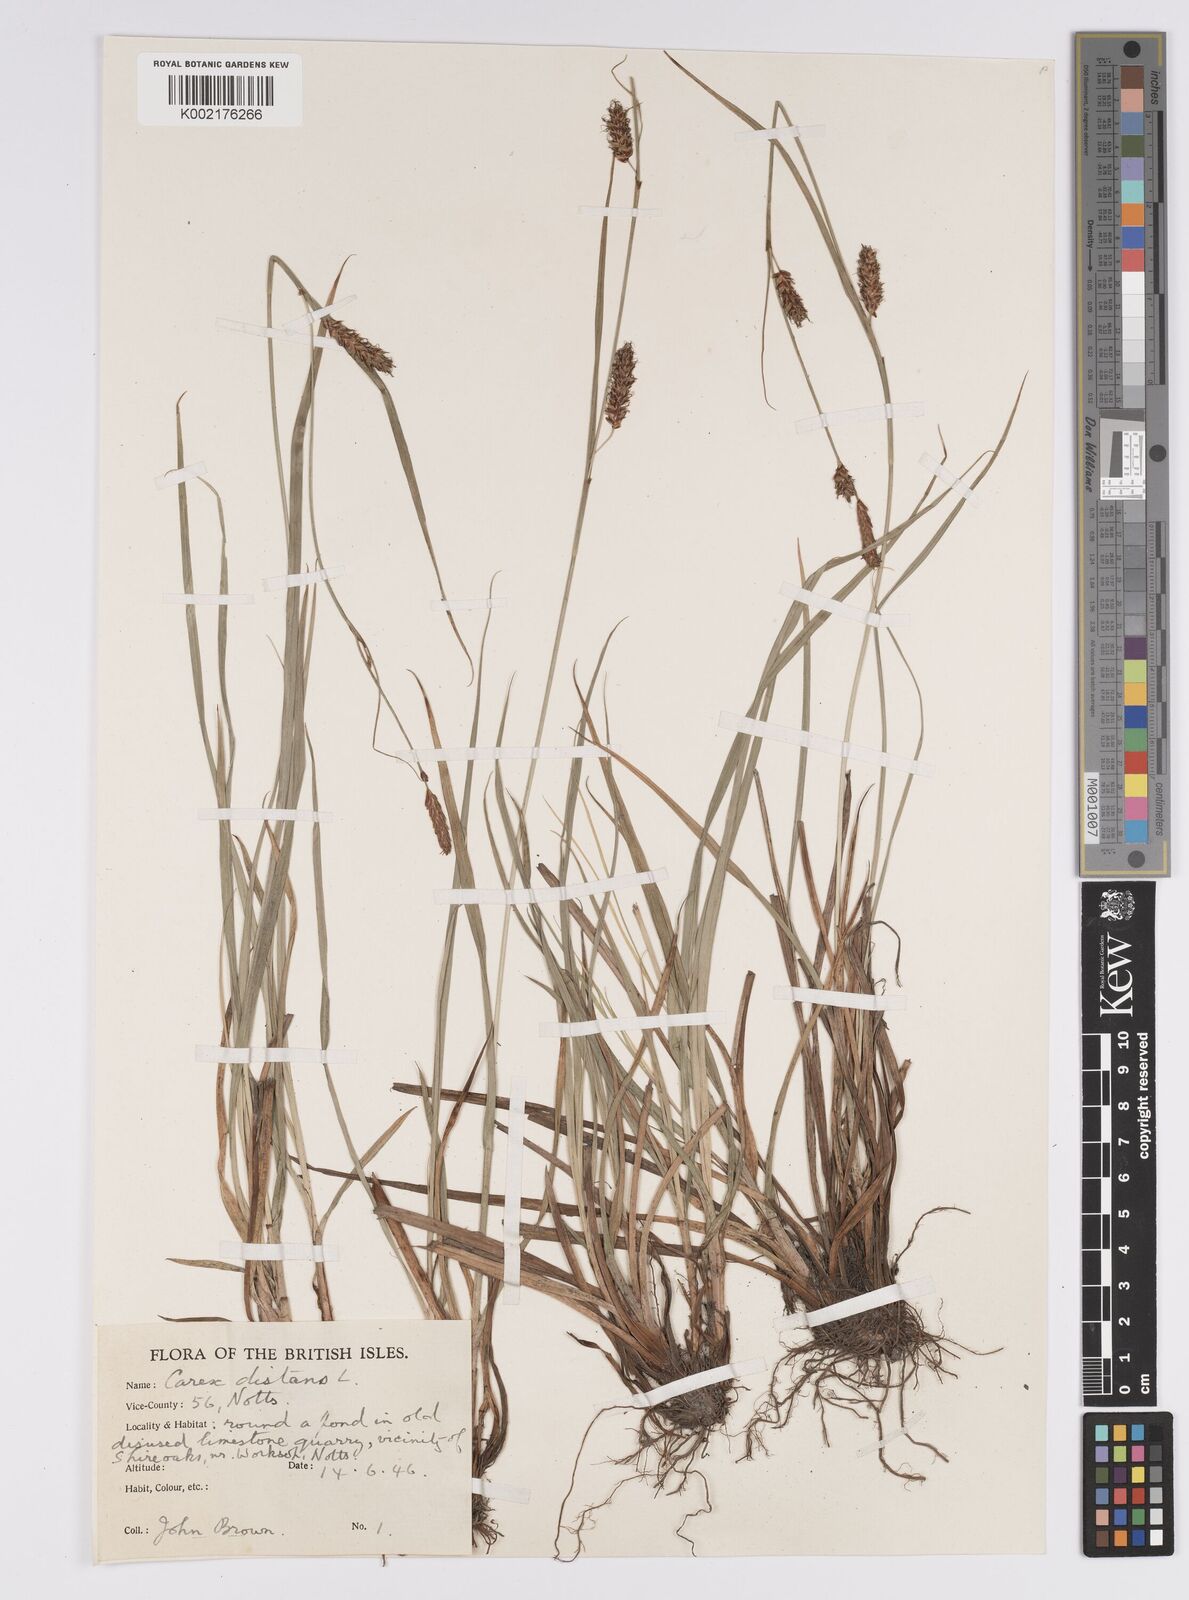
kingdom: Plantae
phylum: Tracheophyta
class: Liliopsida
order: Poales
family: Cyperaceae
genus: Carex
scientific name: Carex distans
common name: Distant sedge
